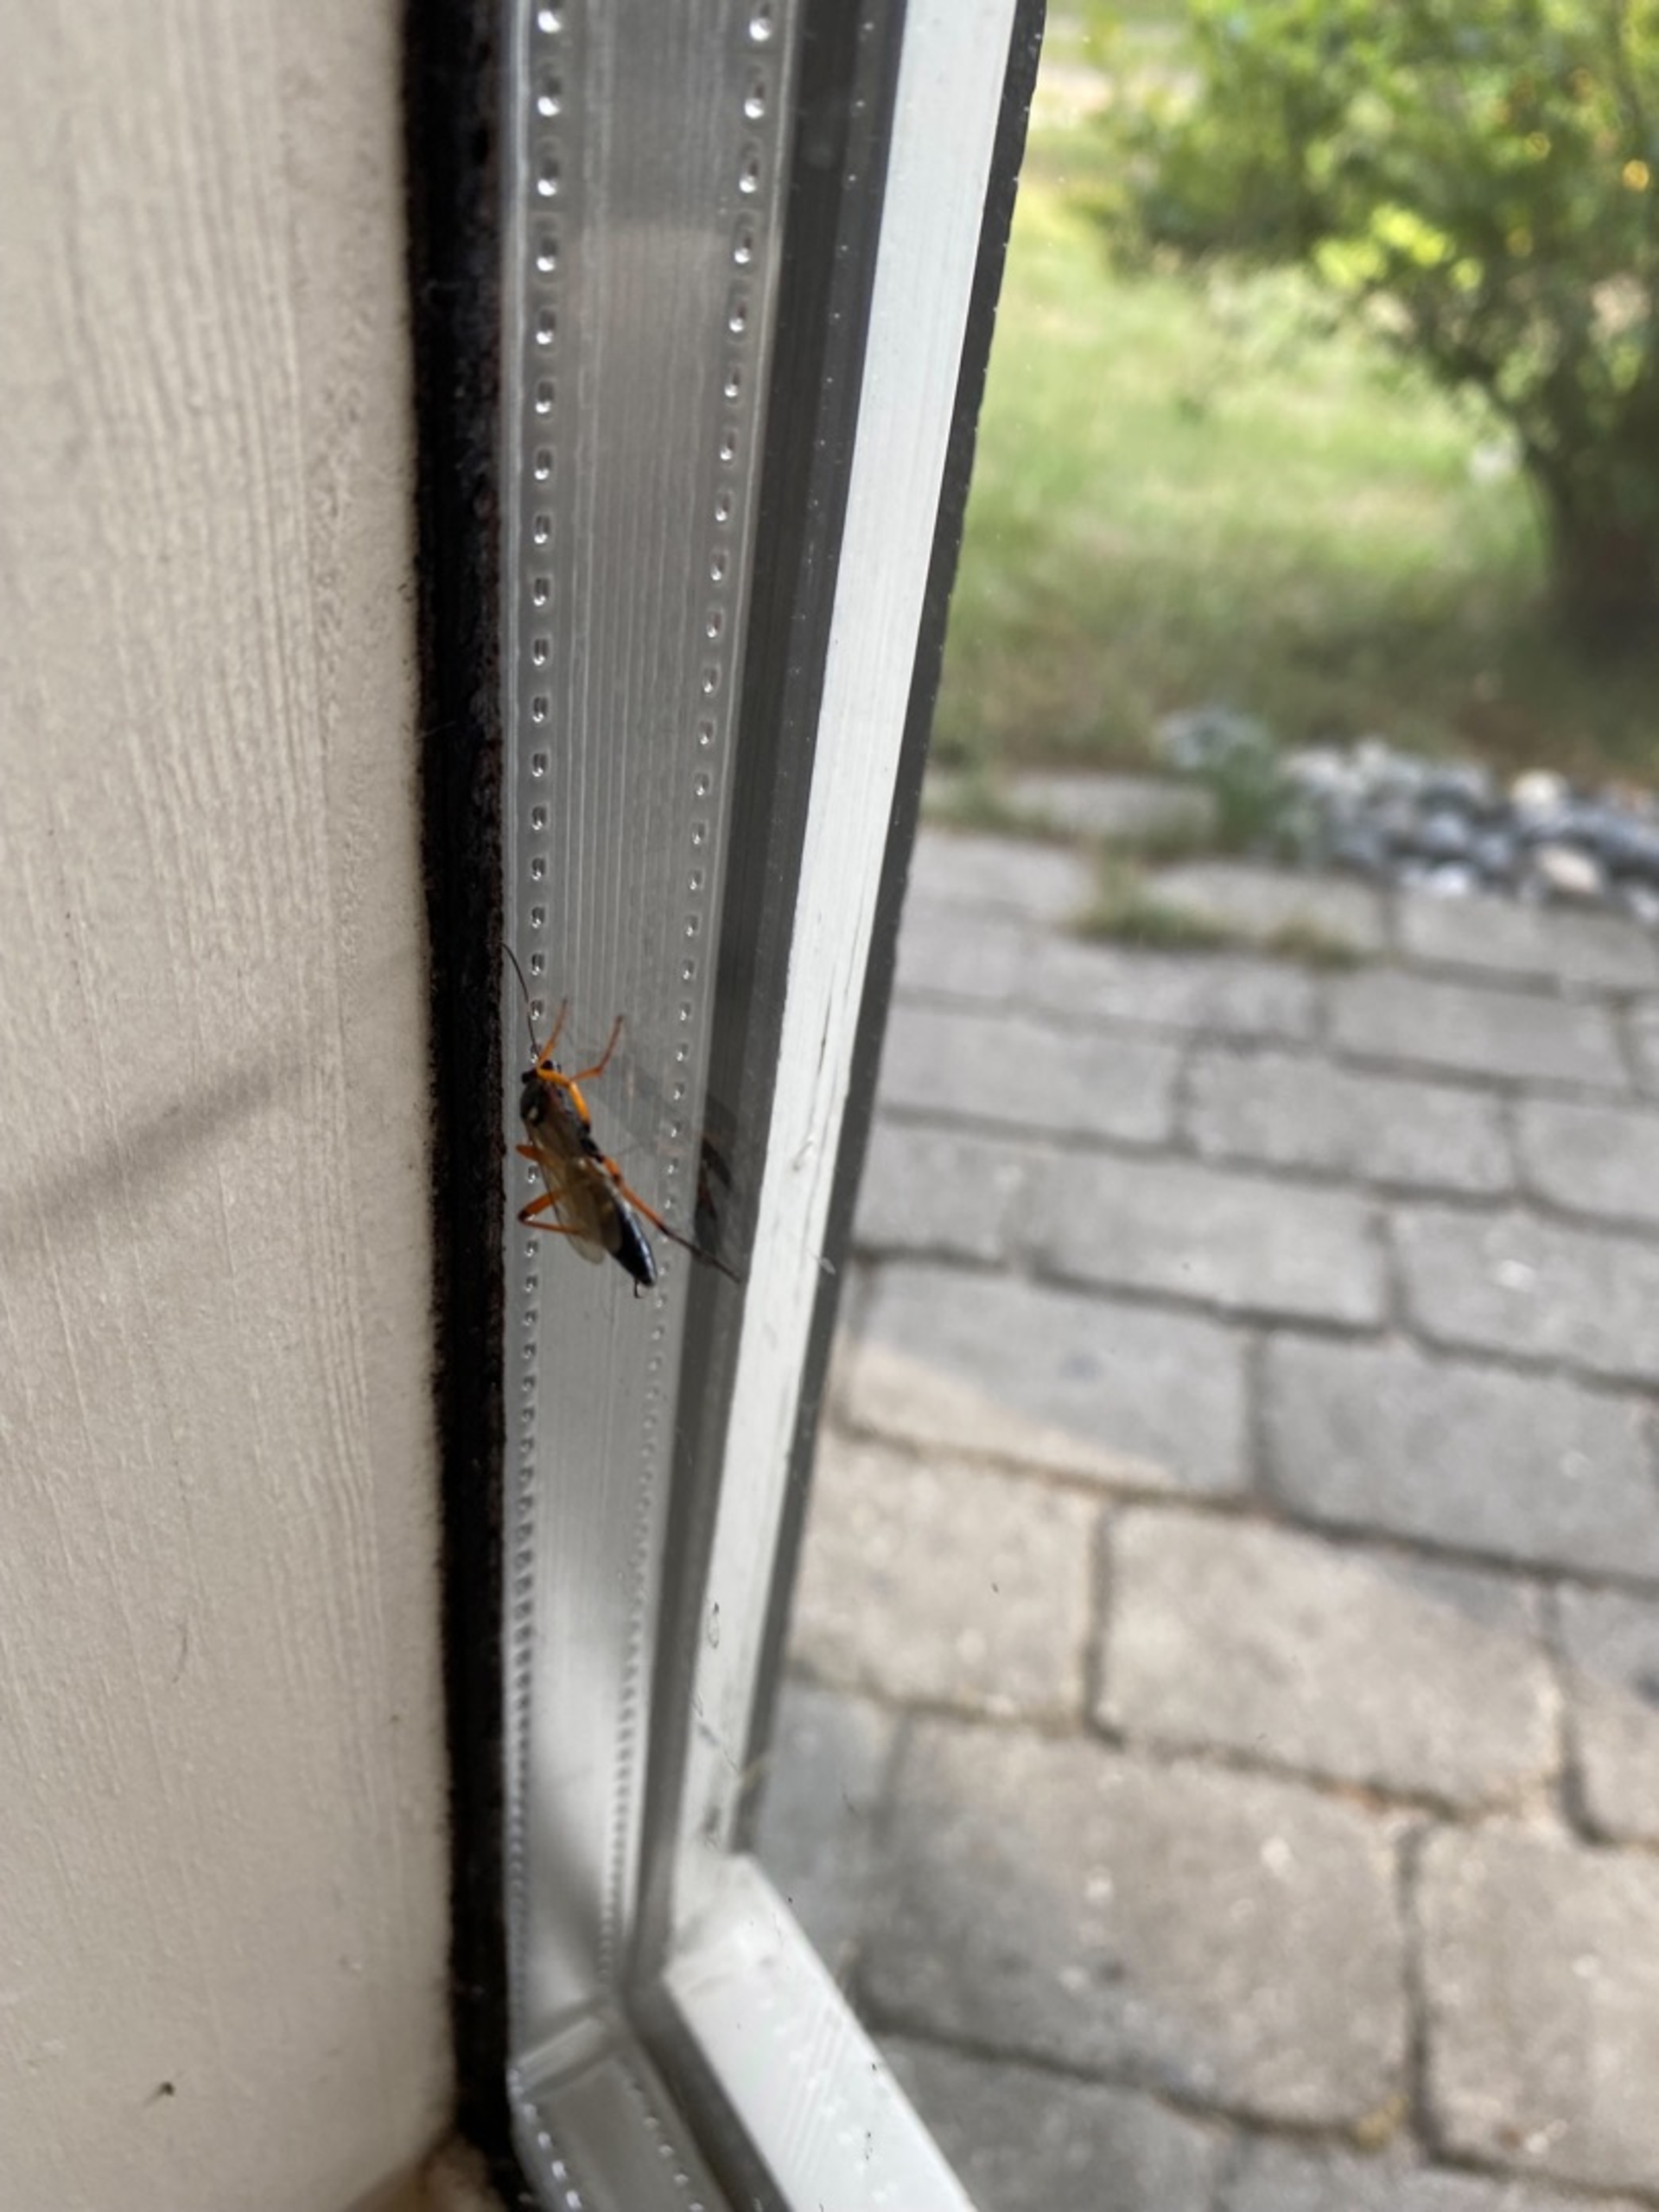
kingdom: Animalia
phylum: Arthropoda
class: Insecta
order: Hymenoptera
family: Ichneumonidae
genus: Diphyus
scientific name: Diphyus quadripunctorius
